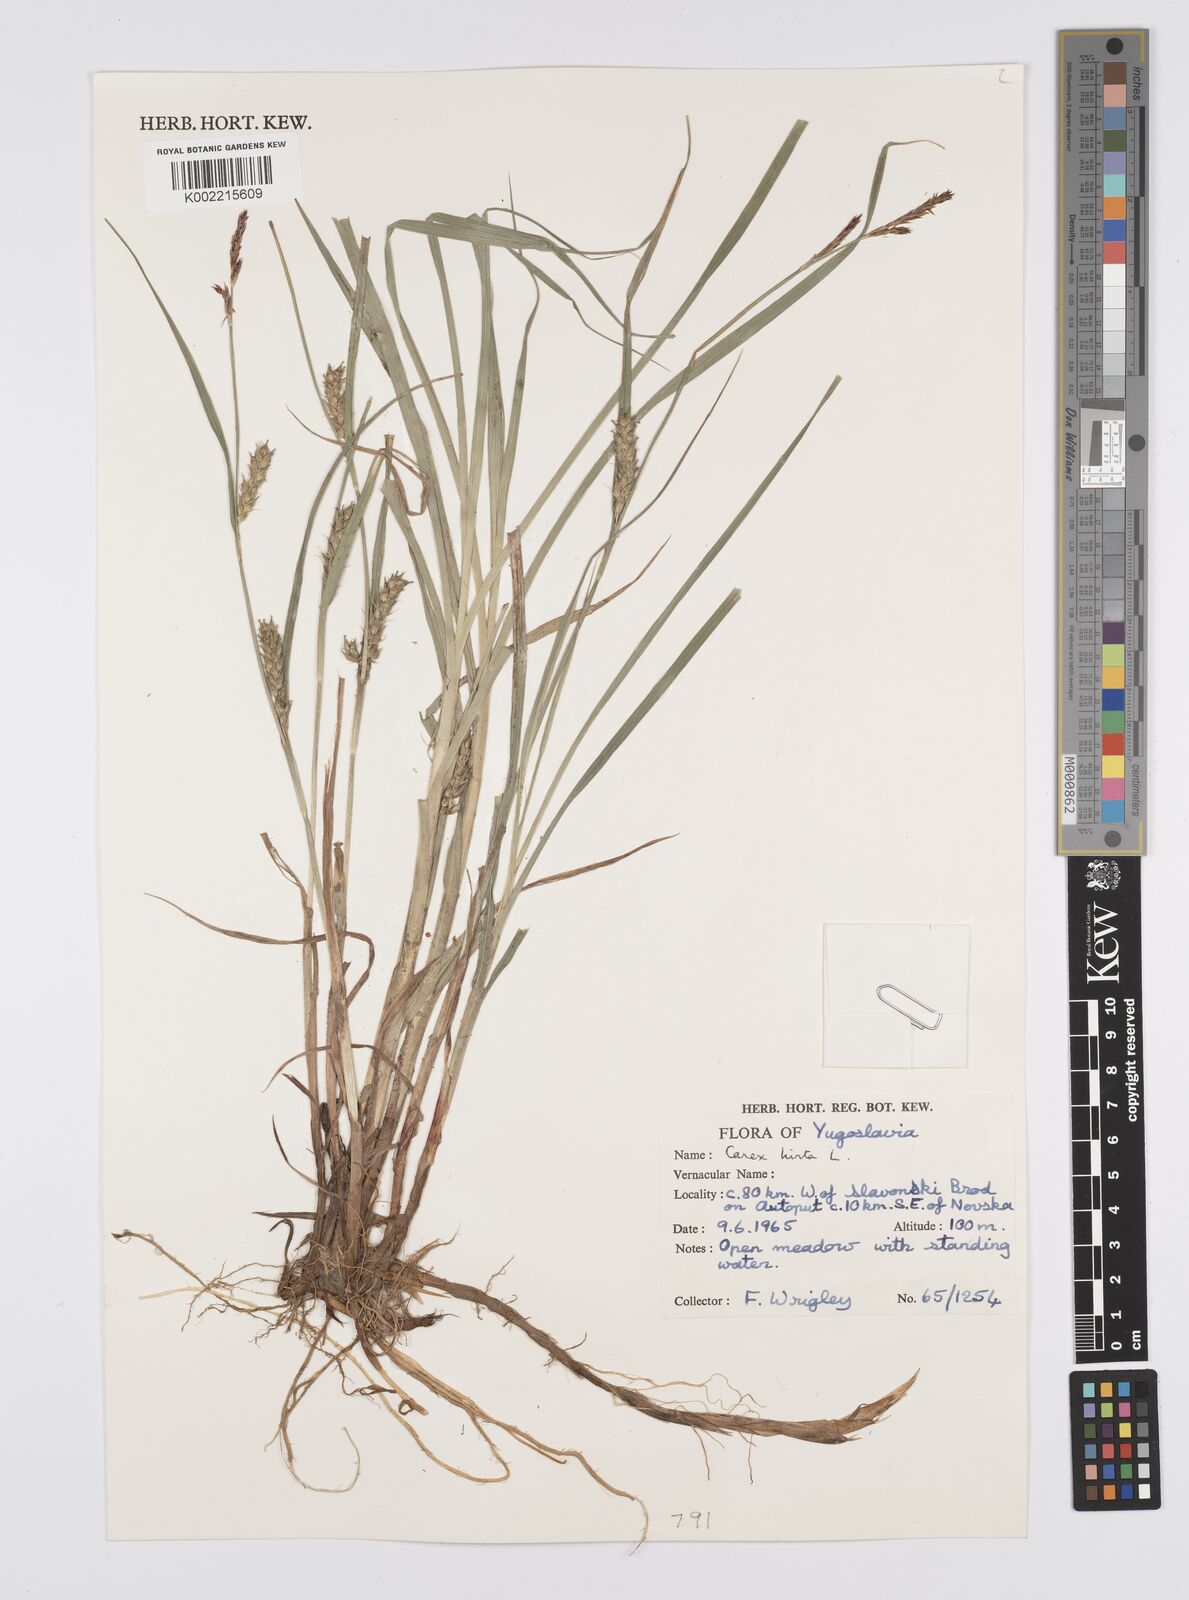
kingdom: Plantae
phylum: Tracheophyta
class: Liliopsida
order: Poales
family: Cyperaceae
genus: Carex
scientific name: Carex hirta
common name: Hairy sedge
